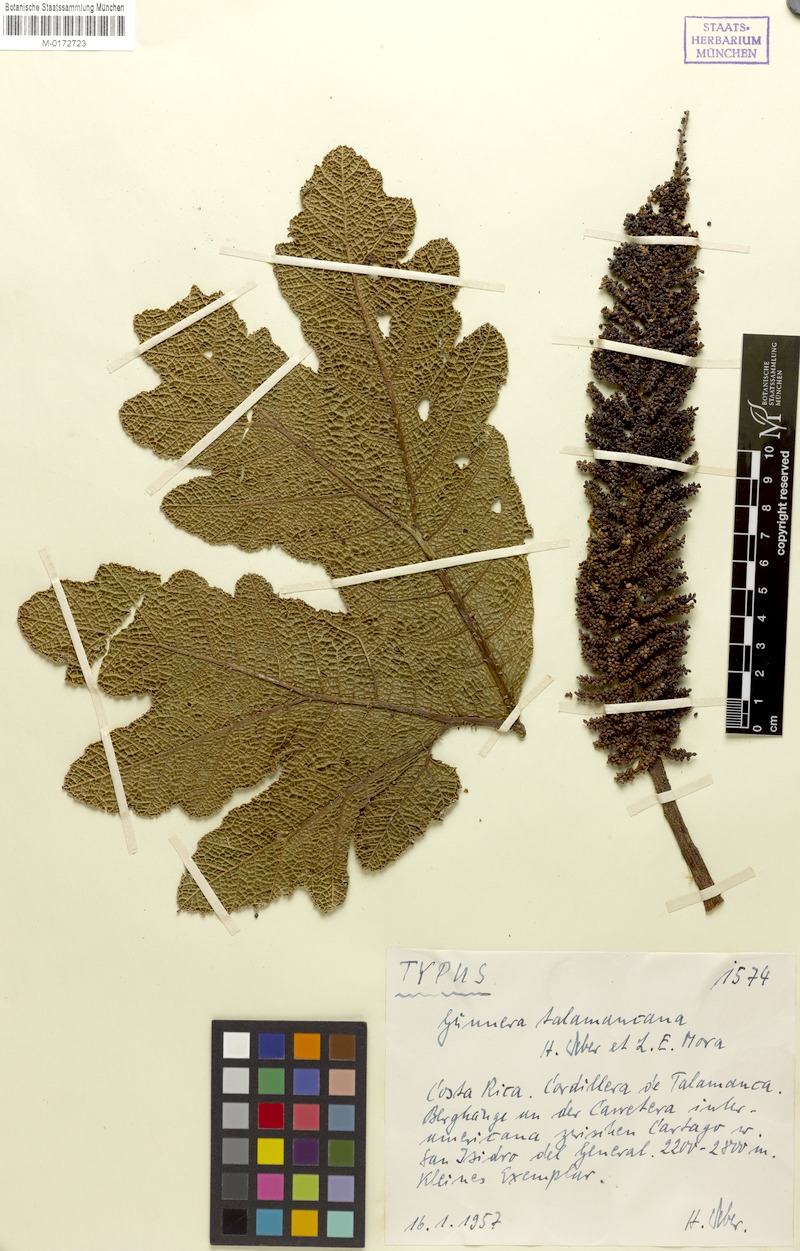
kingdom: Plantae
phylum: Tracheophyta
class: Magnoliopsida
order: Gunnerales
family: Gunneraceae
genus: Gunnera
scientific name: Gunnera talamancana
